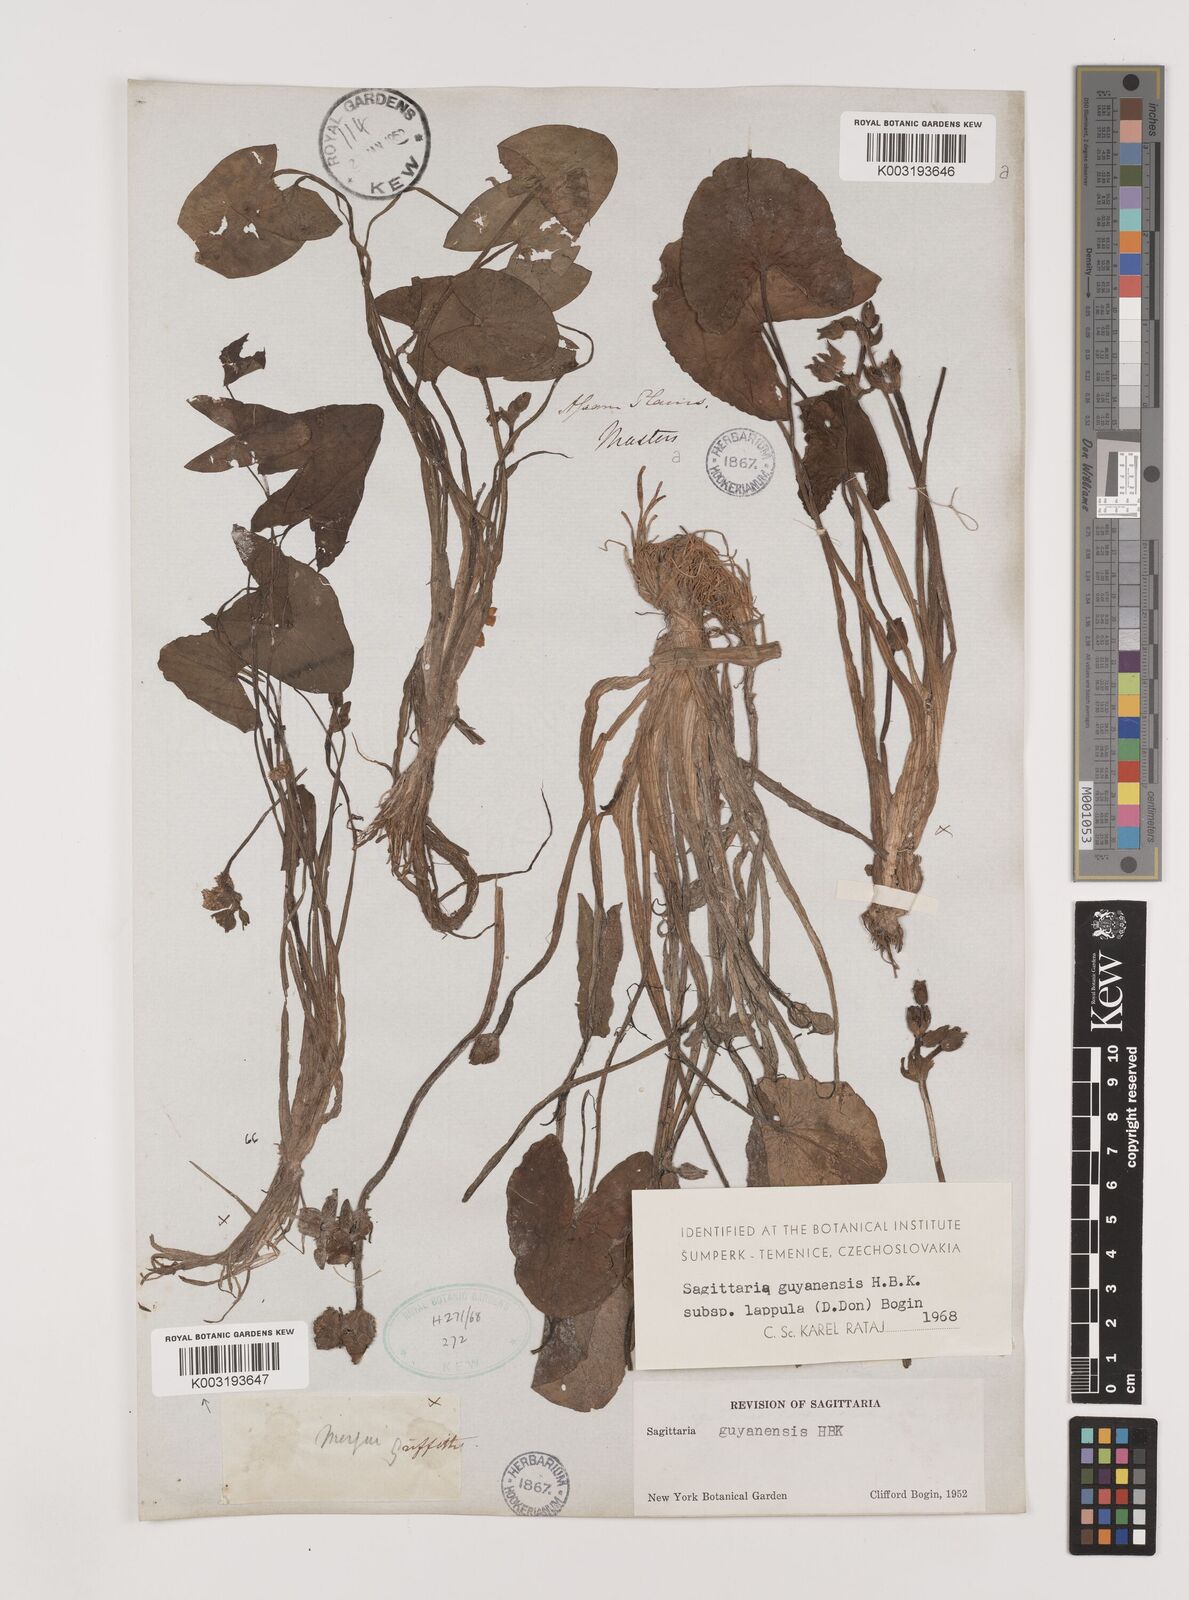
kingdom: Plantae
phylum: Tracheophyta
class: Liliopsida
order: Alismatales
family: Alismataceae
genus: Sagittaria
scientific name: Sagittaria guayanensis
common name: Guyanese arrowhead
